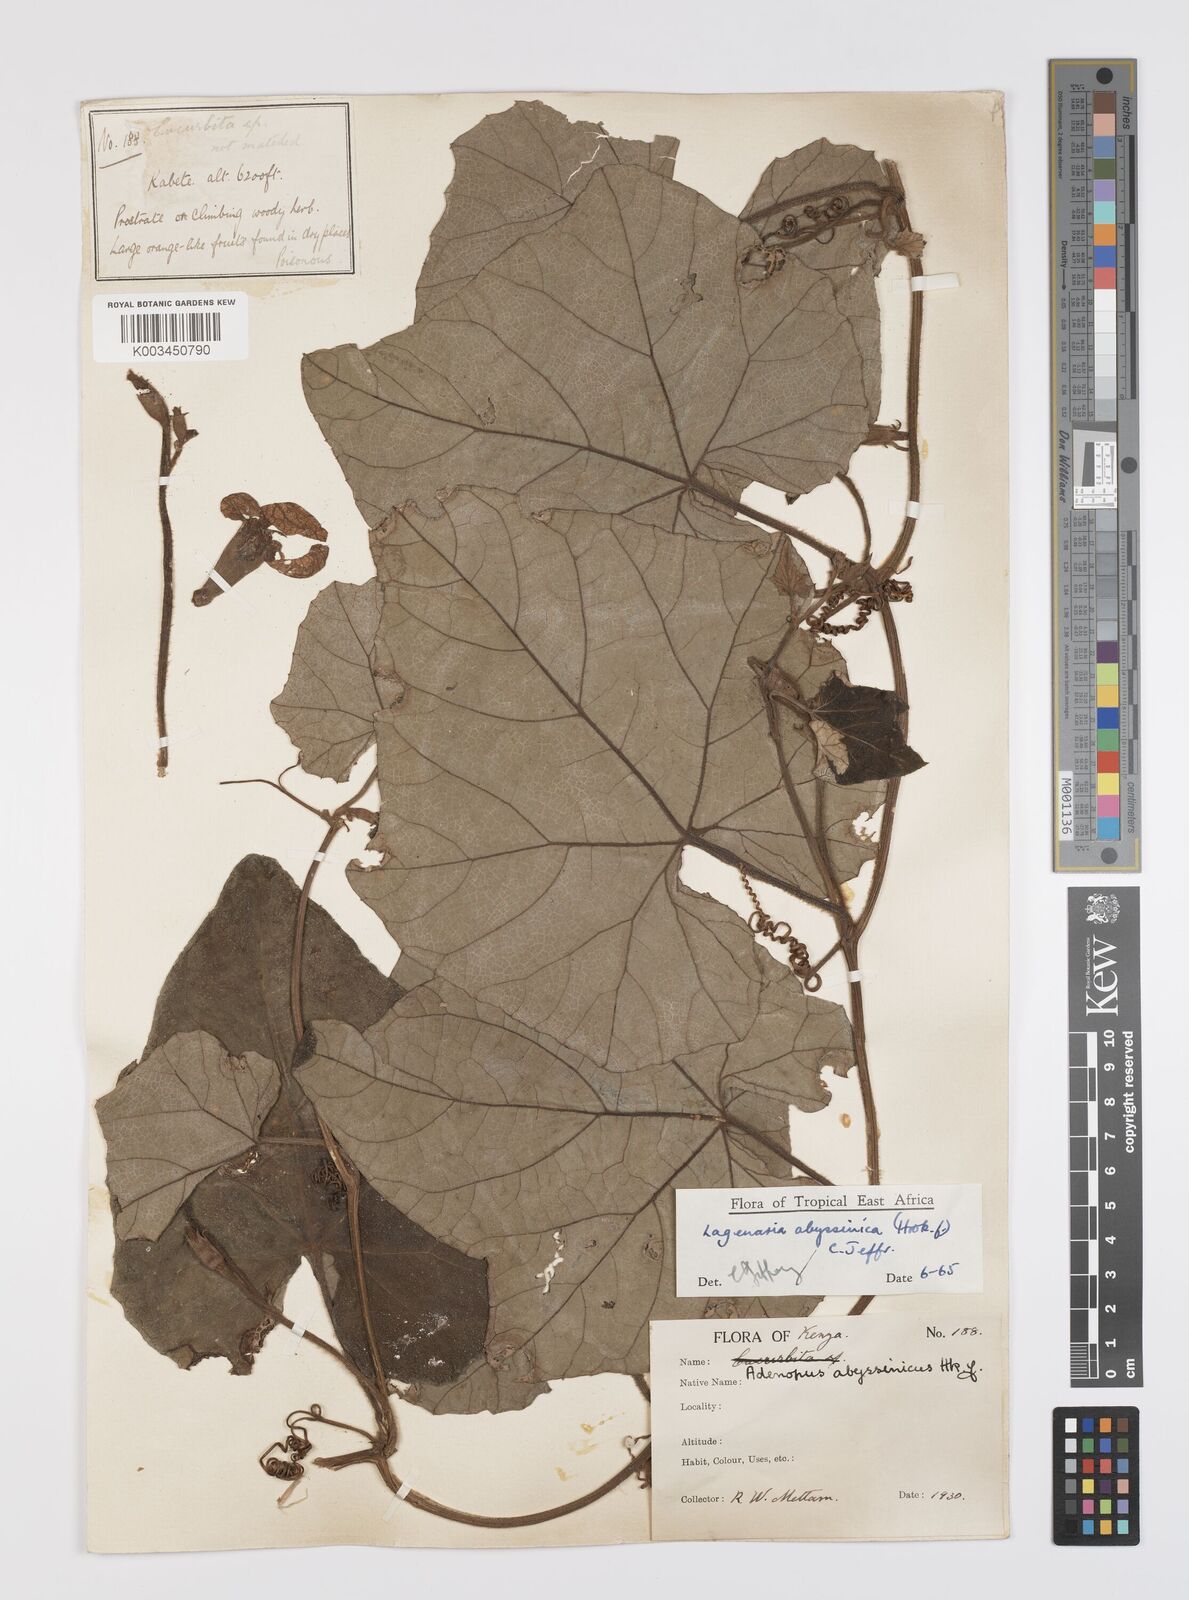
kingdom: Plantae
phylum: Tracheophyta
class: Magnoliopsida
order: Cucurbitales
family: Cucurbitaceae
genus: Lagenaria
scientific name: Lagenaria abyssinica
